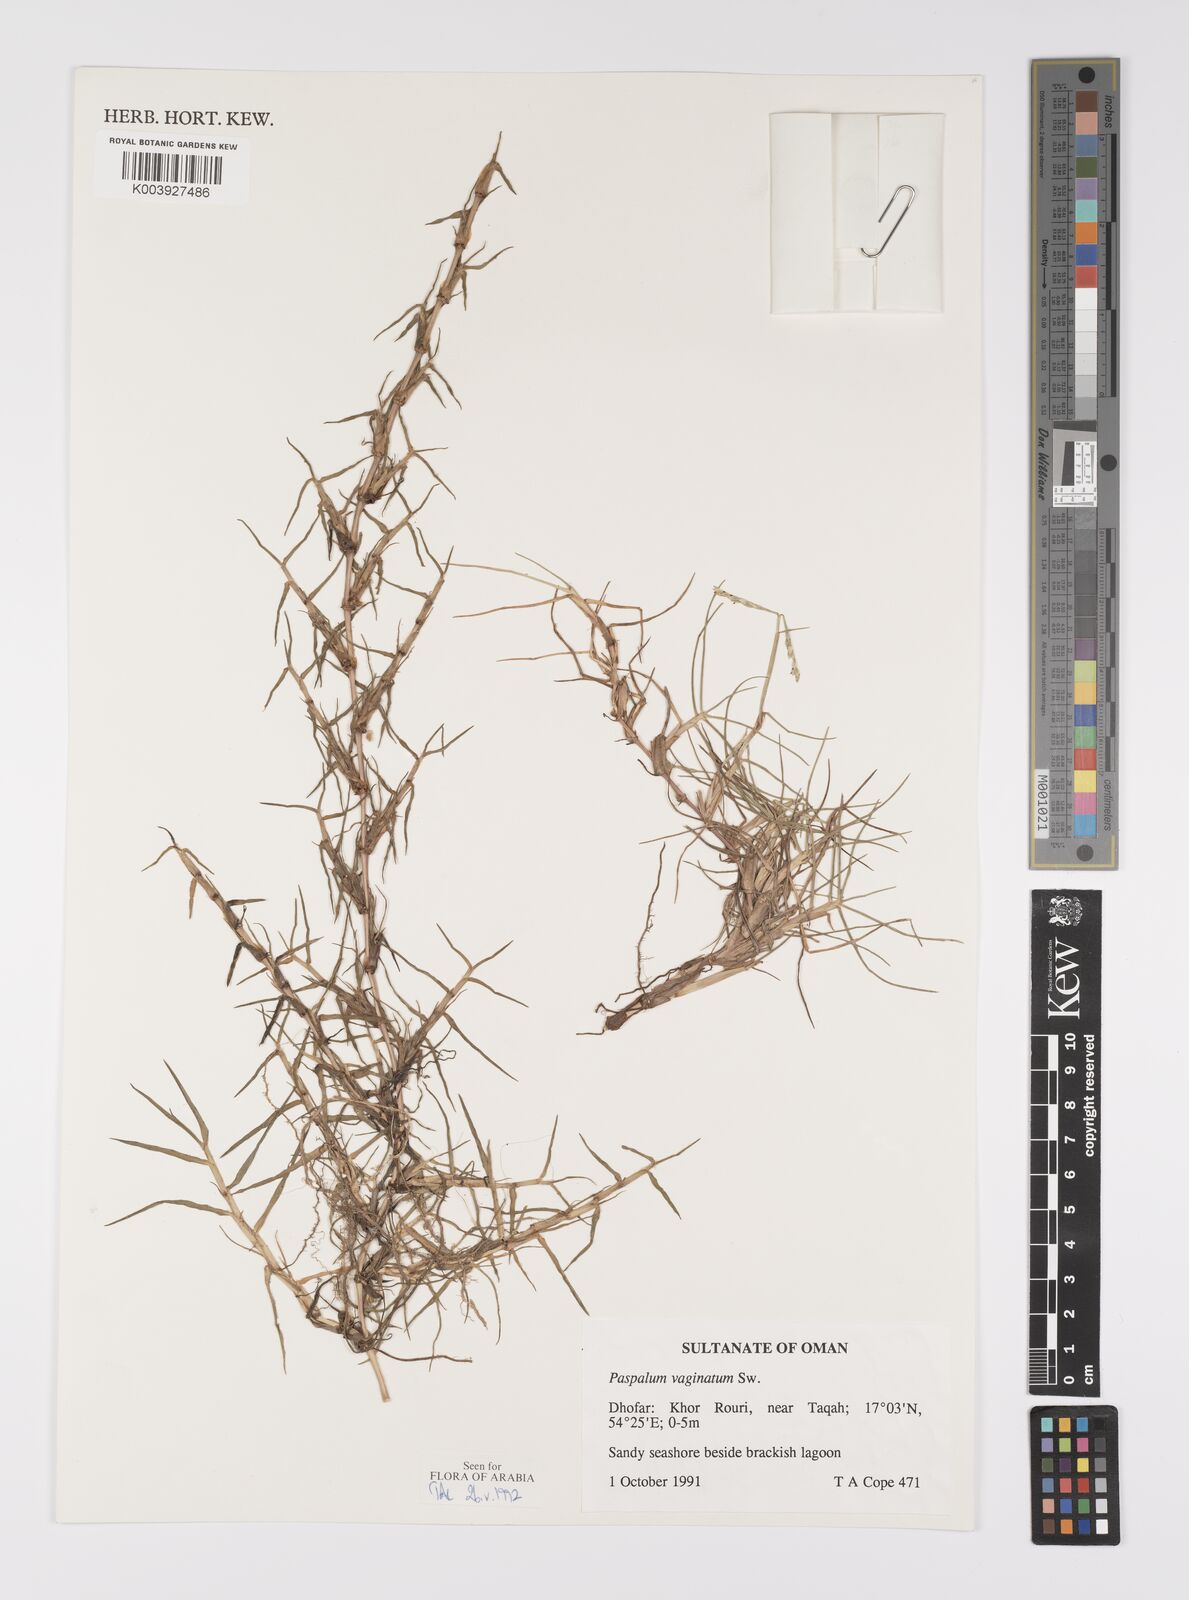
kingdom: Plantae
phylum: Tracheophyta
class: Liliopsida
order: Poales
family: Poaceae
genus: Paspalum
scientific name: Paspalum vaginatum
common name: Seashore paspalum
